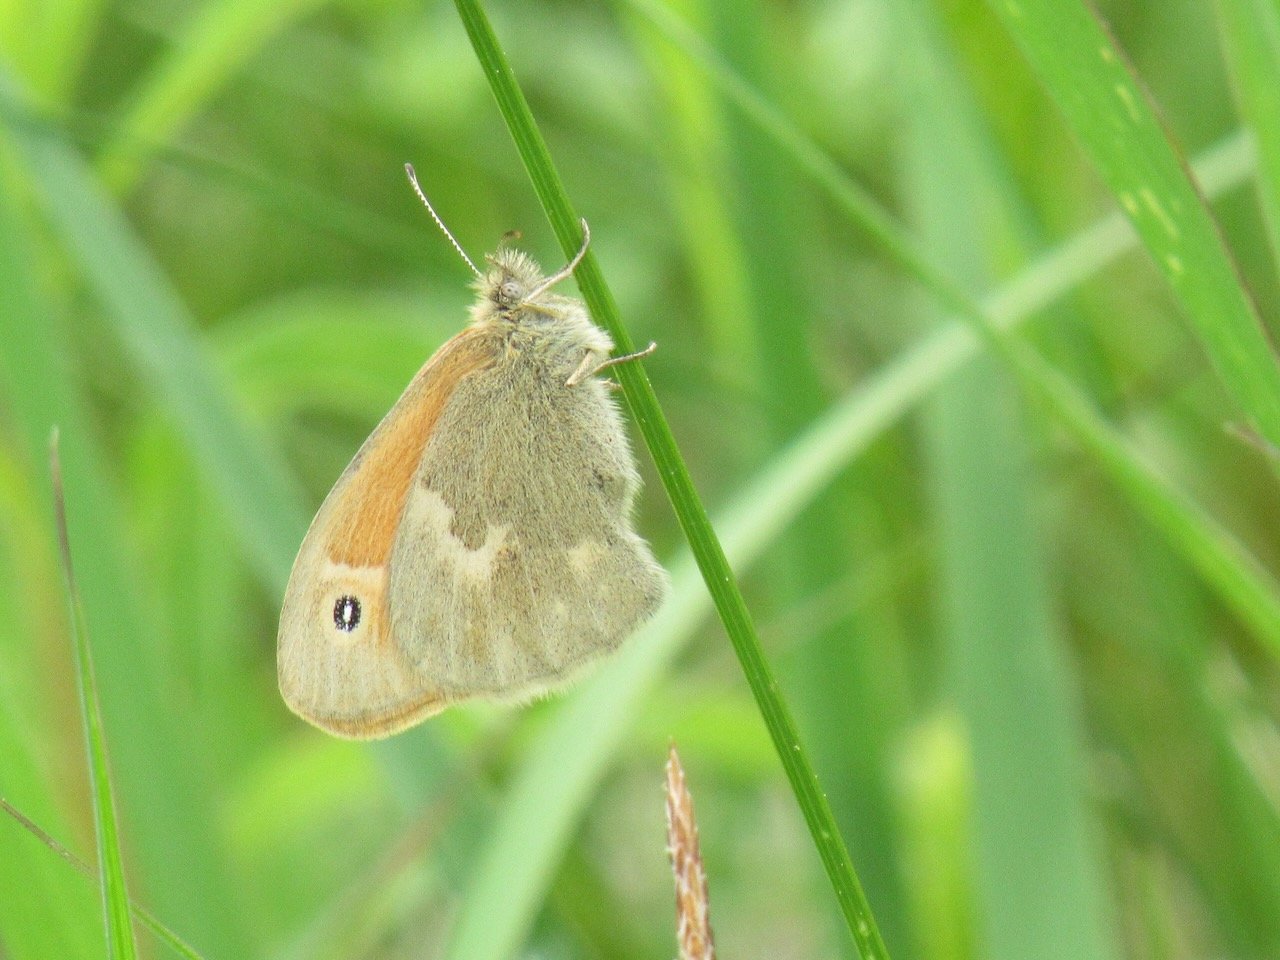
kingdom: Animalia
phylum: Arthropoda
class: Insecta
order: Lepidoptera
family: Nymphalidae
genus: Coenonympha
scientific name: Coenonympha tullia
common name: Large Heath
